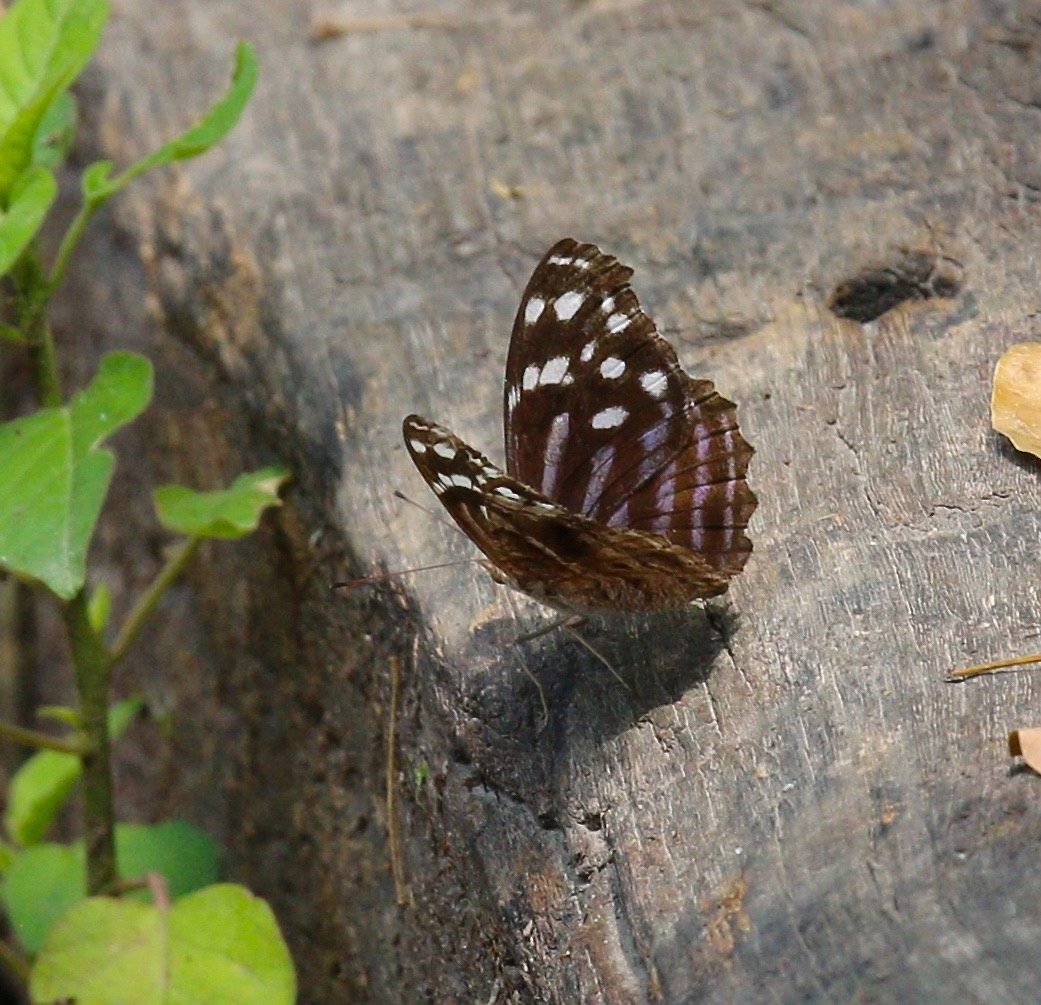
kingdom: Animalia
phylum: Arthropoda
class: Insecta
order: Lepidoptera
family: Nymphalidae
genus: Myscelia
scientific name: Myscelia ethusa
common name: Mexican Bluewing
